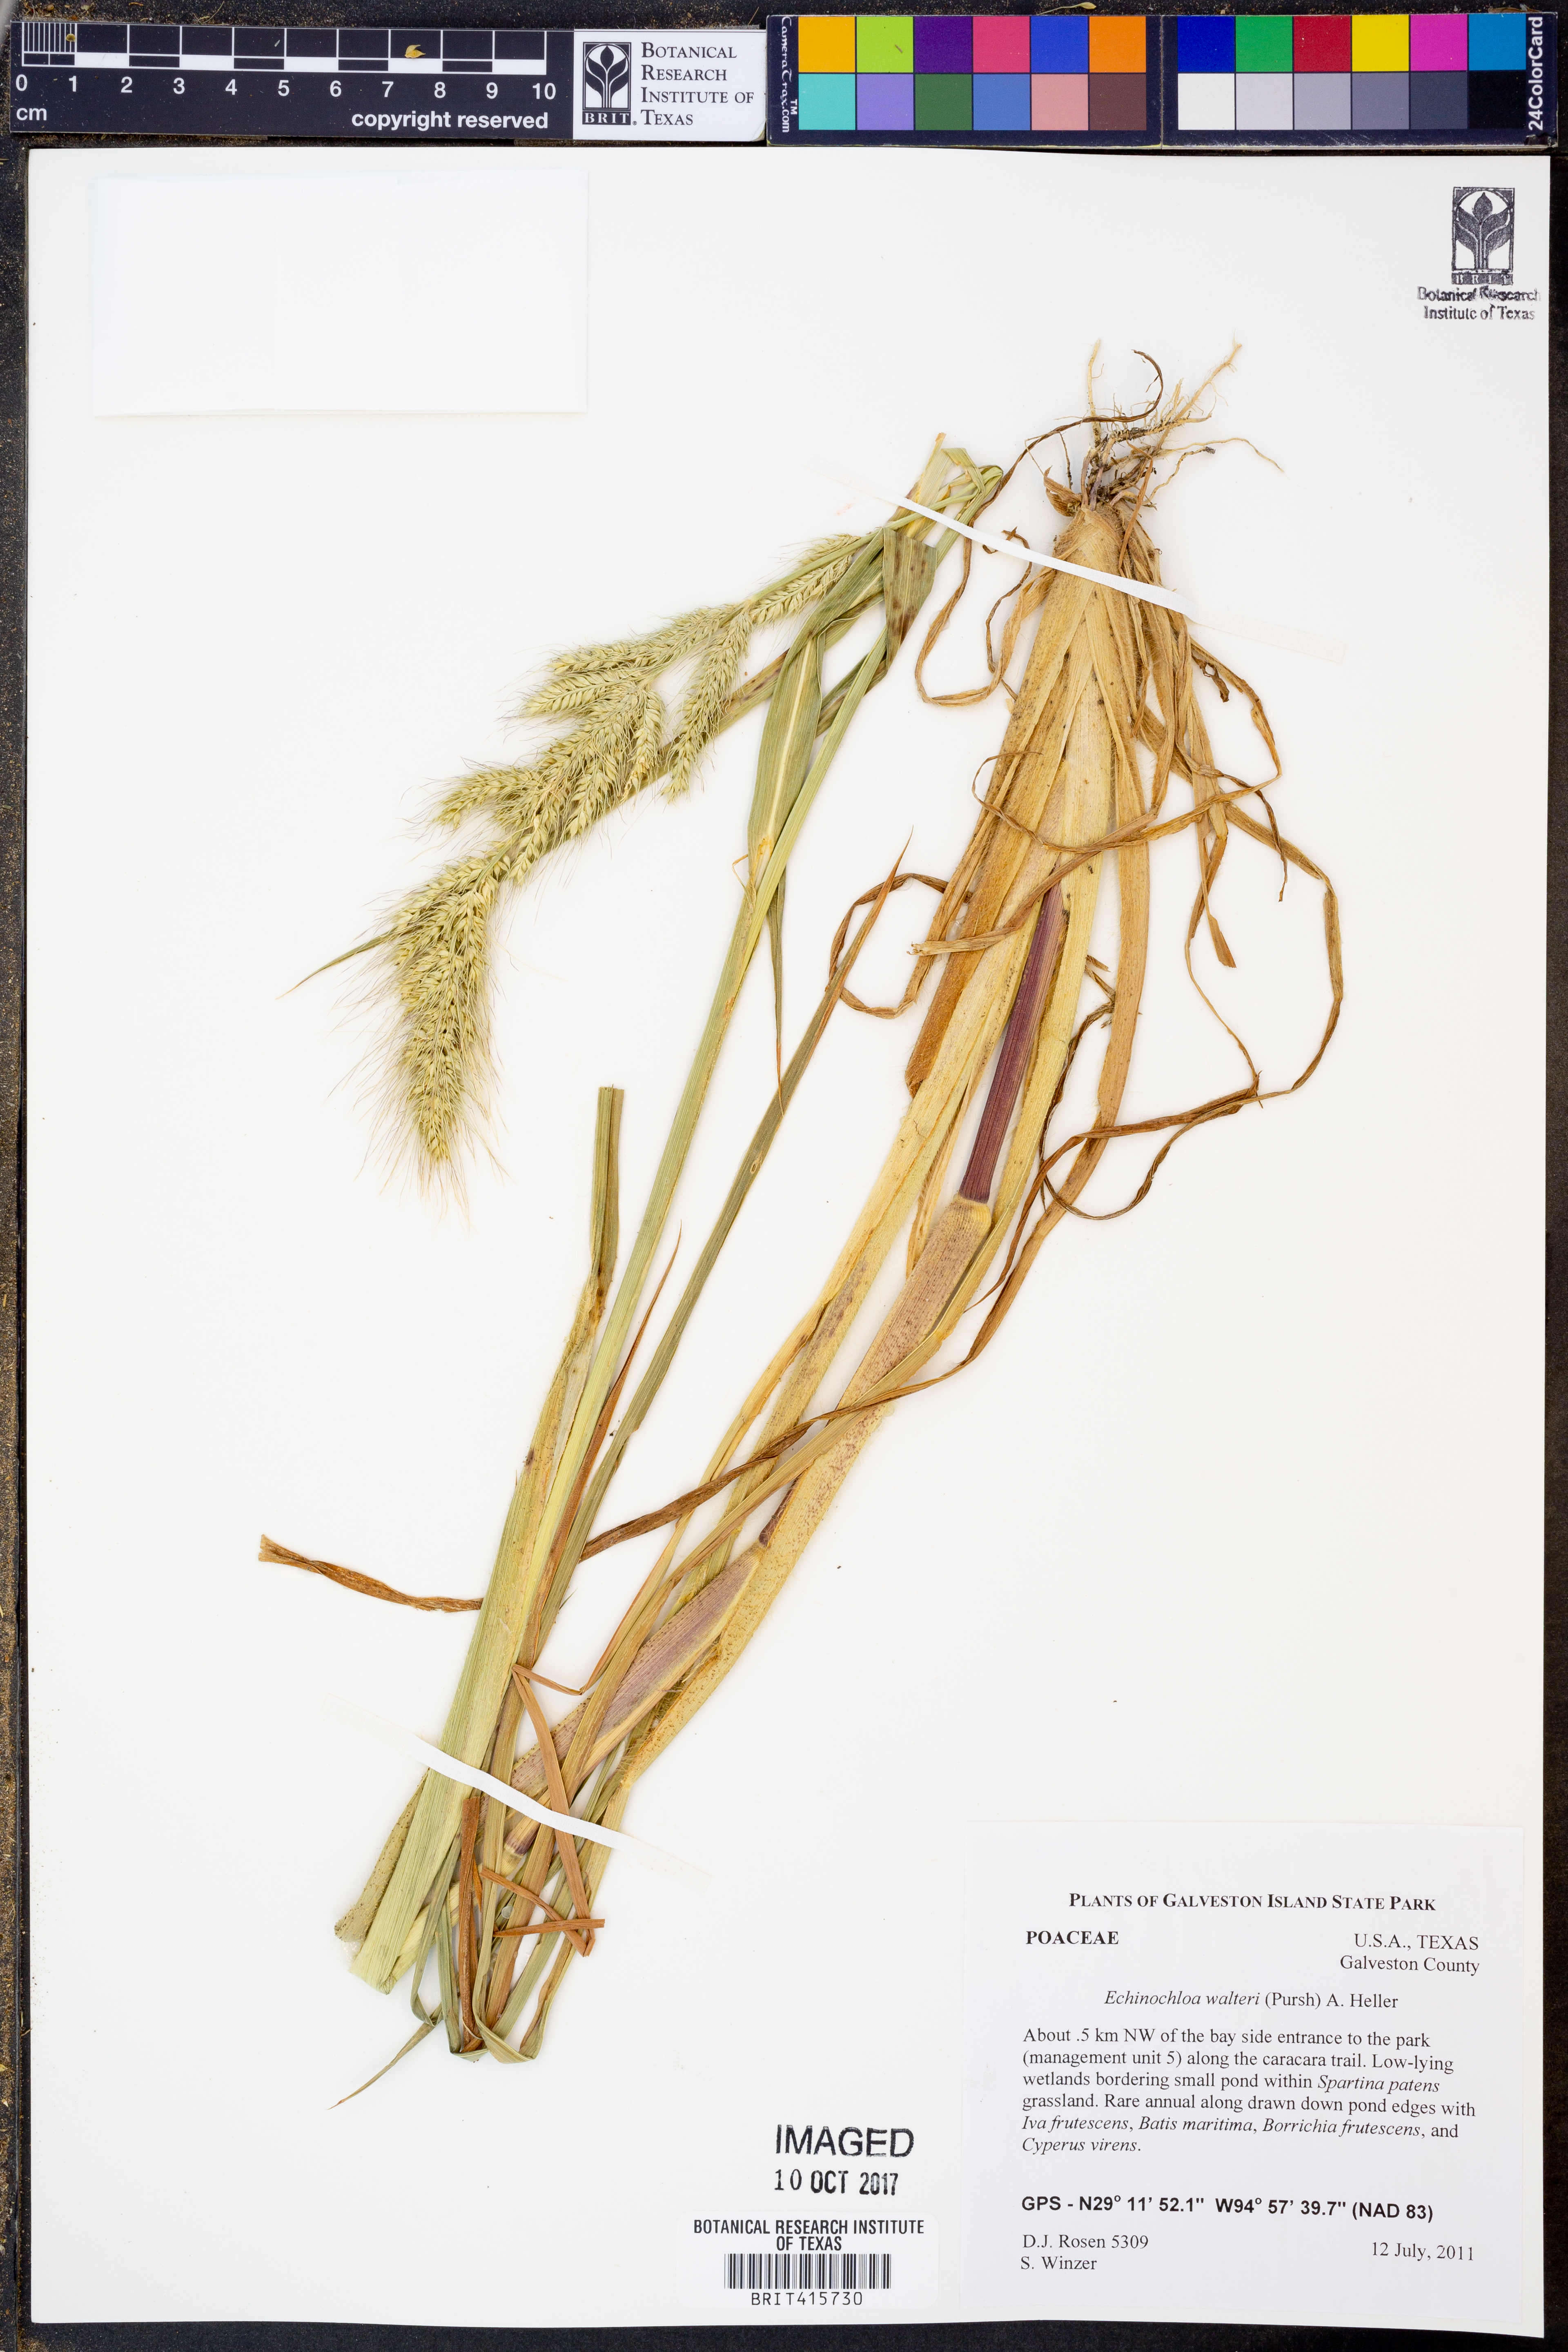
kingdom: Plantae
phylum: Tracheophyta
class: Liliopsida
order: Poales
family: Poaceae
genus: Echinochloa
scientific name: Echinochloa walteri
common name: Coast barnyard grass
